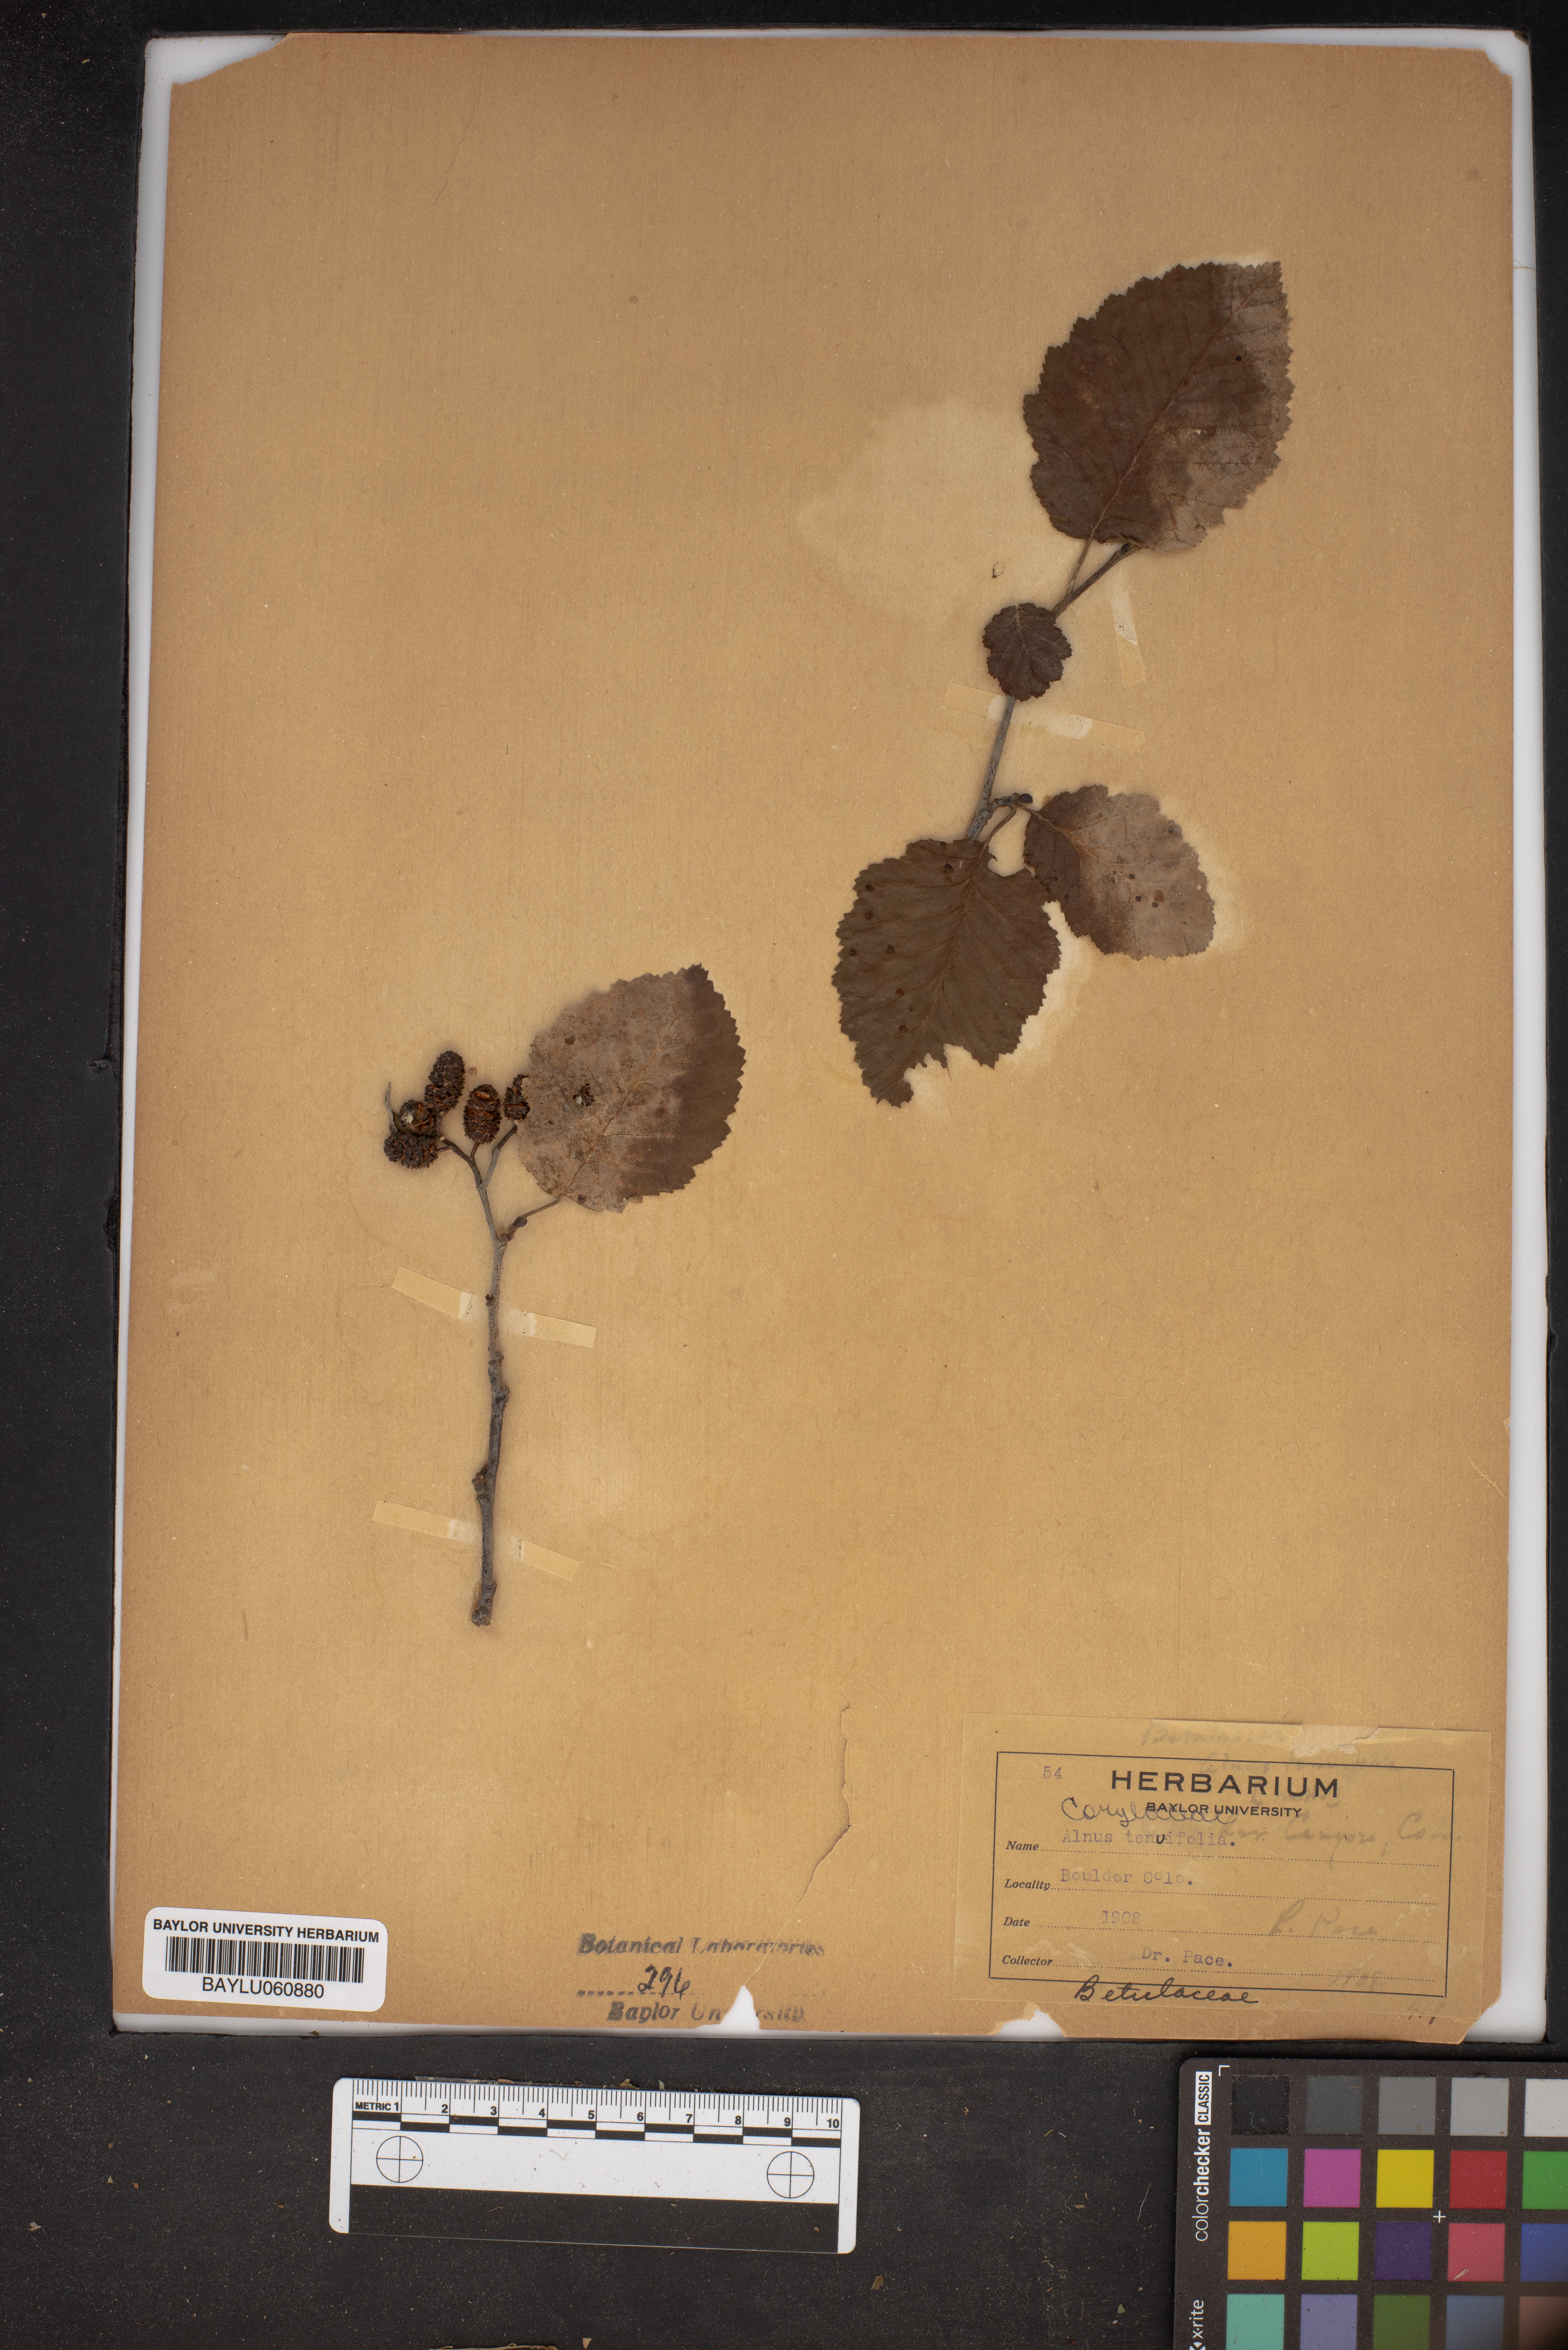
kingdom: Plantae
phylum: Tracheophyta
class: Magnoliopsida
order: Fagales
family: Betulaceae
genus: Alnus
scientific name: Alnus incana
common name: Grey alder
